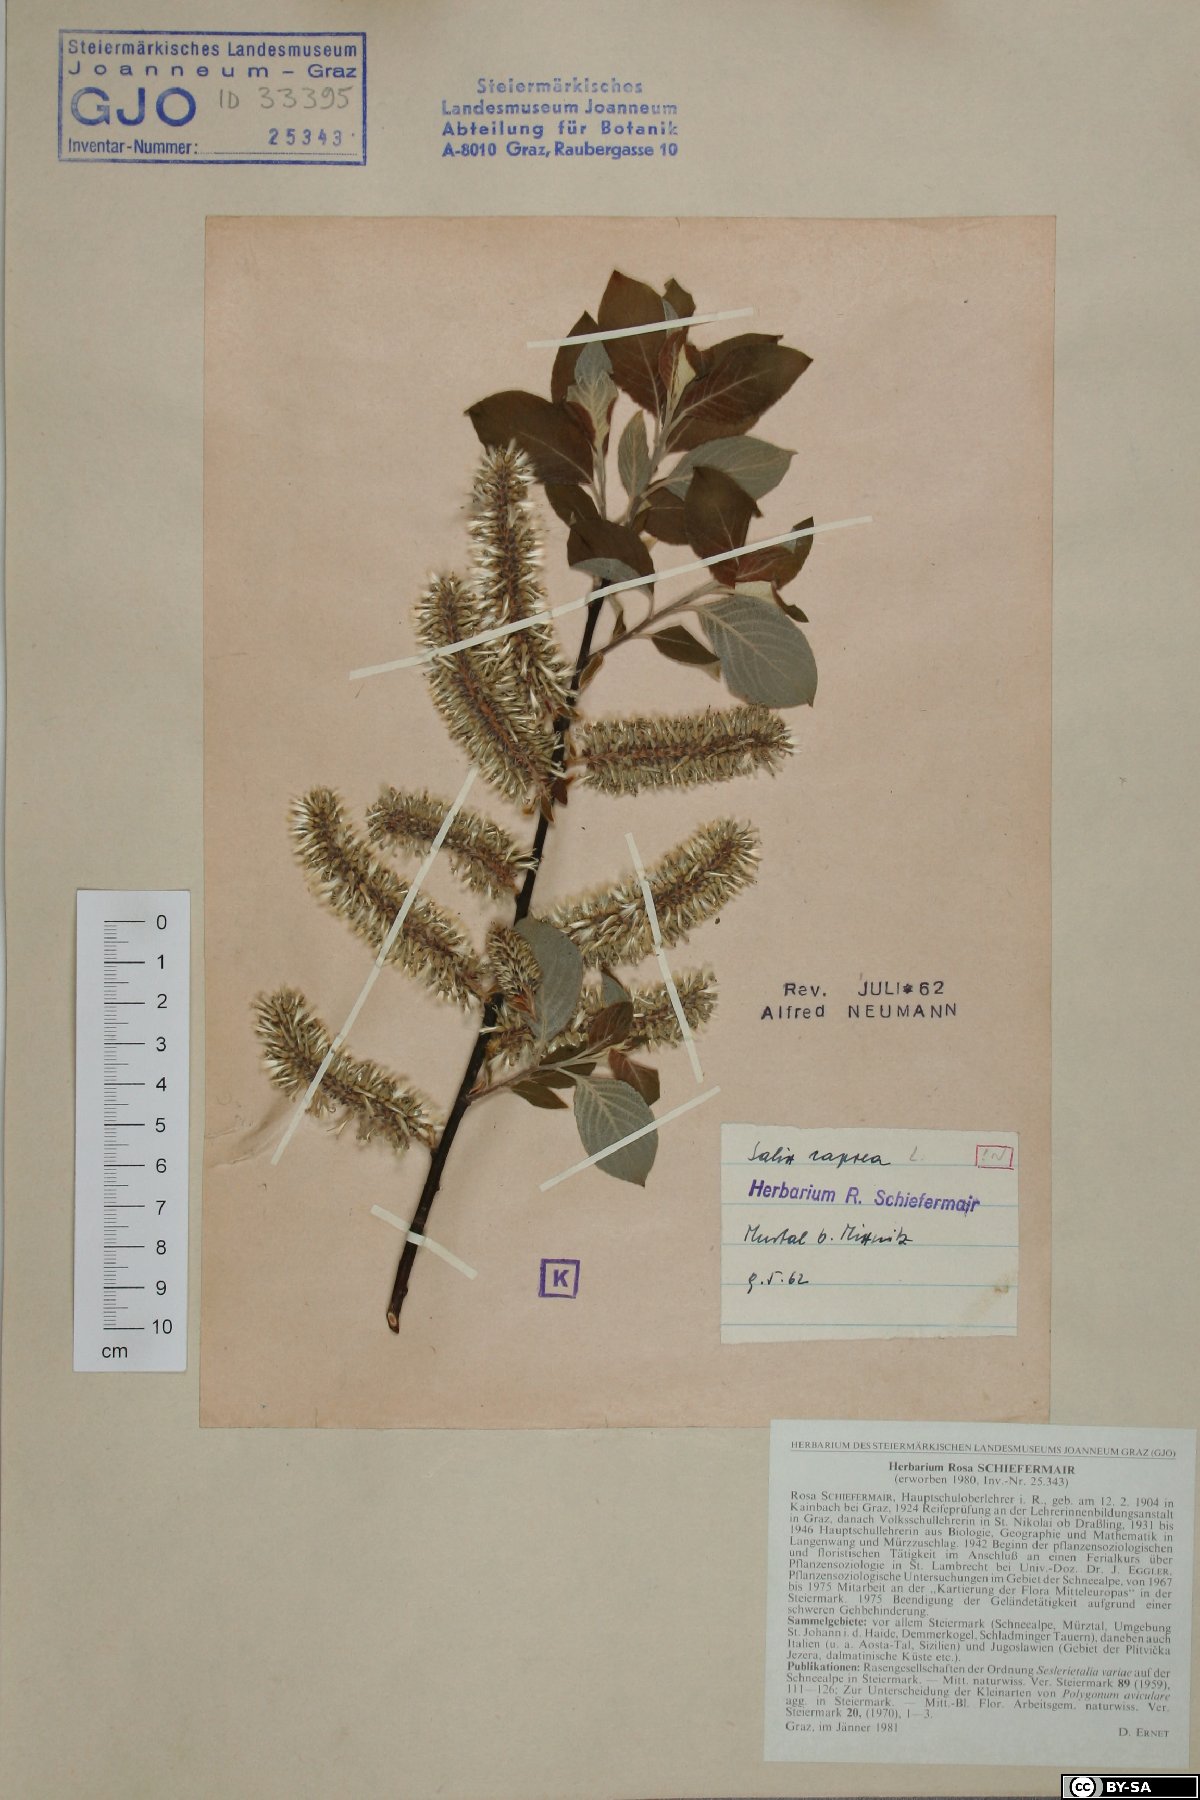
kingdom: Plantae
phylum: Tracheophyta
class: Magnoliopsida
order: Malpighiales
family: Salicaceae
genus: Salix
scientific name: Salix caprea
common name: Goat willow
